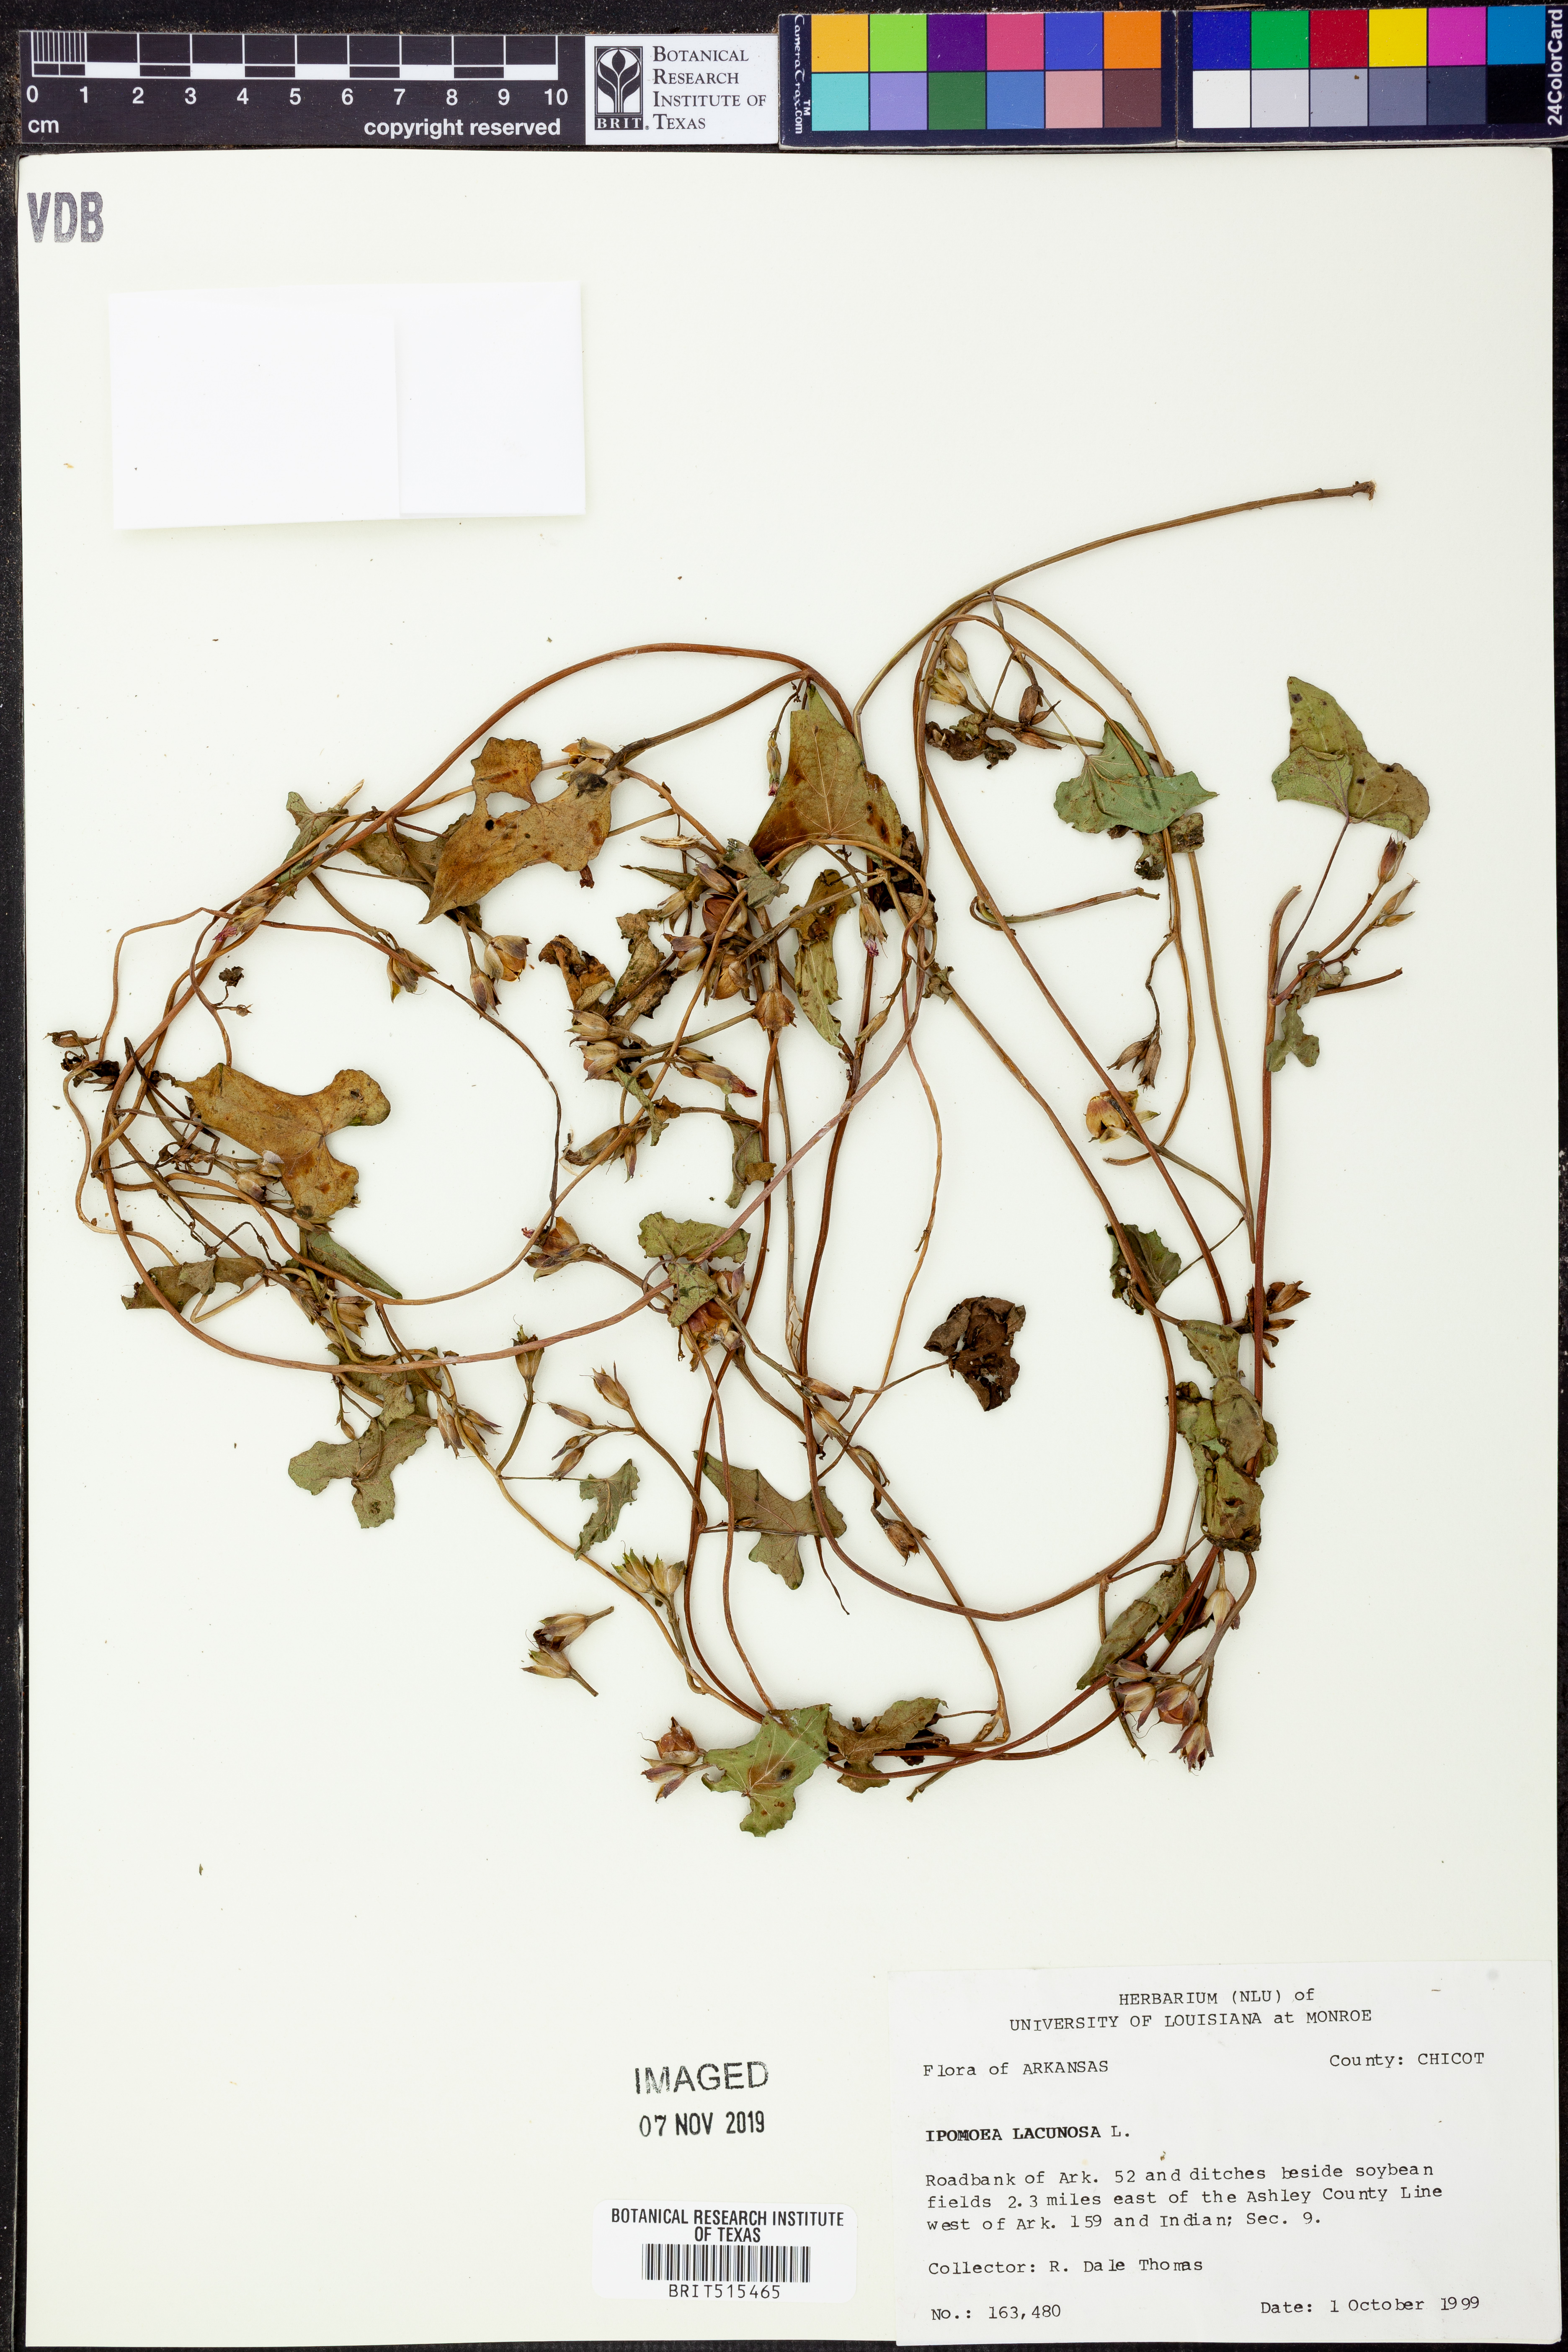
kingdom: Plantae
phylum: Tracheophyta
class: Magnoliopsida
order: Solanales
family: Convolvulaceae
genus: Ipomoea
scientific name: Ipomoea lacunosa
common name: White morning-glory
